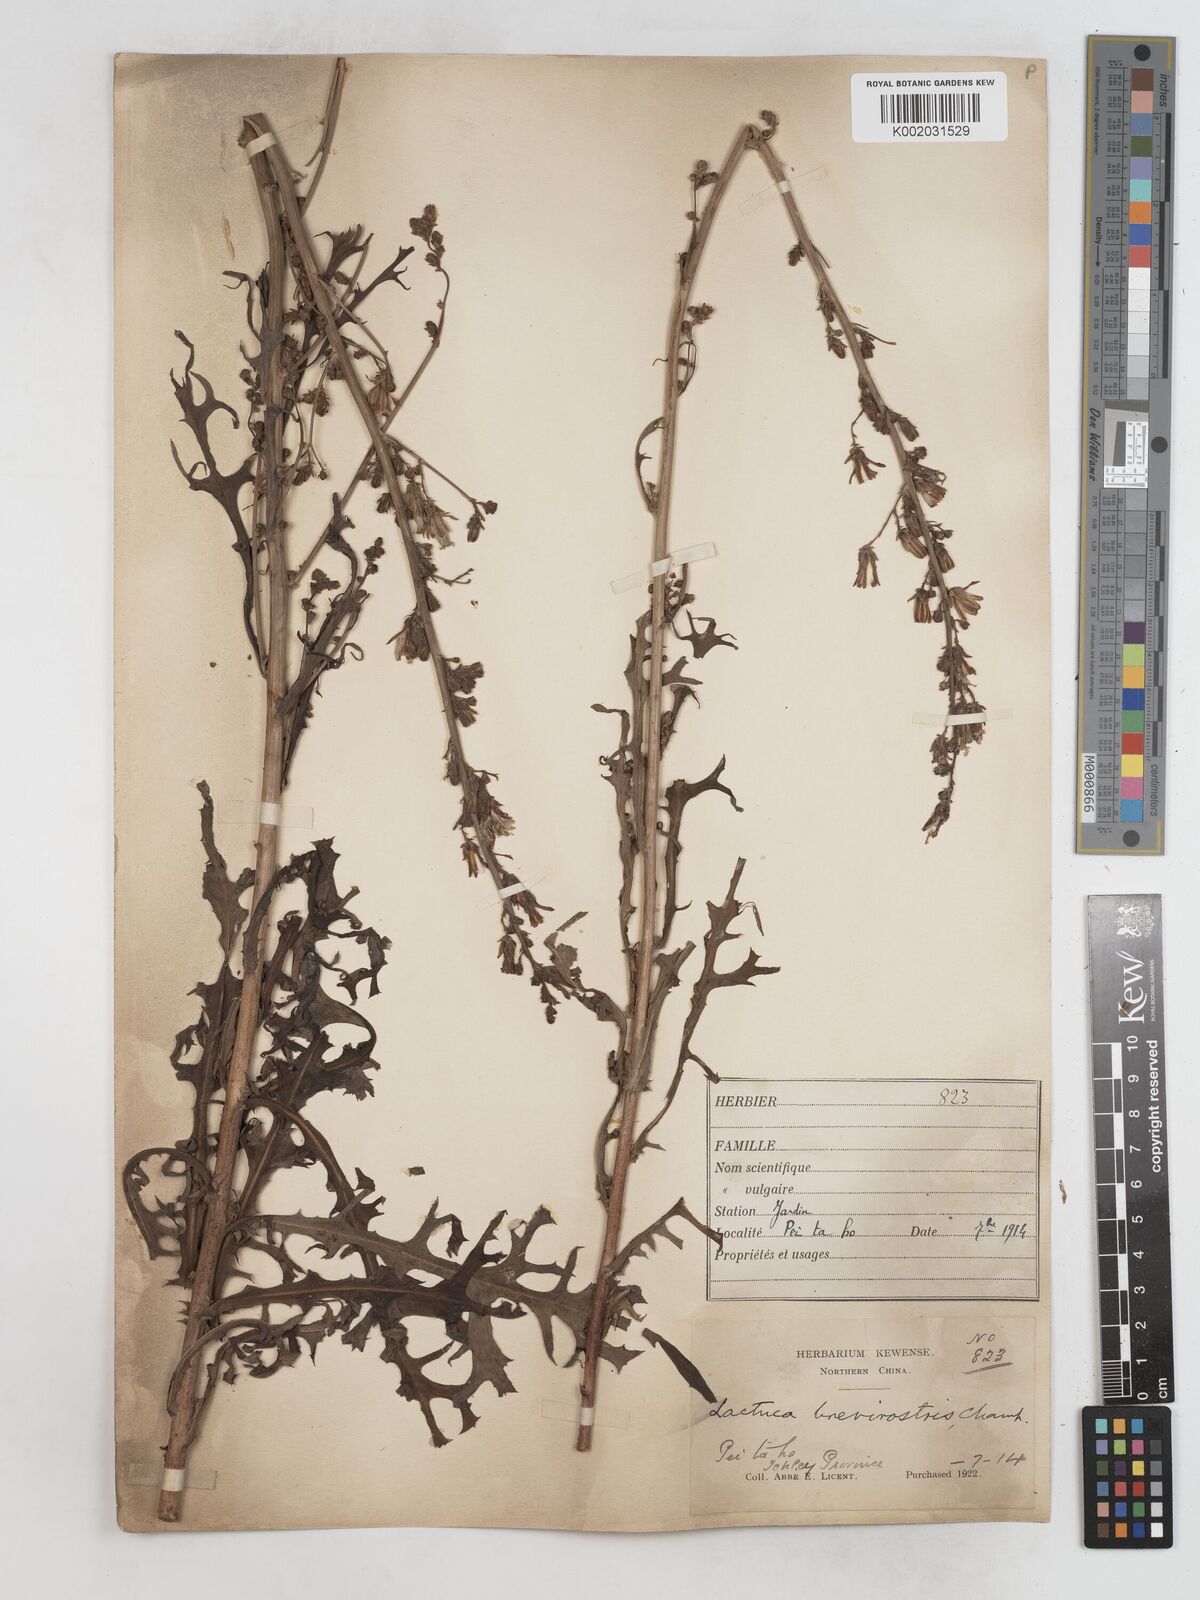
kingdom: Plantae
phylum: Tracheophyta
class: Magnoliopsida
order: Asterales
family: Asteraceae
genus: Lactuca
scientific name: Lactuca indica
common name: Wild lettuce
